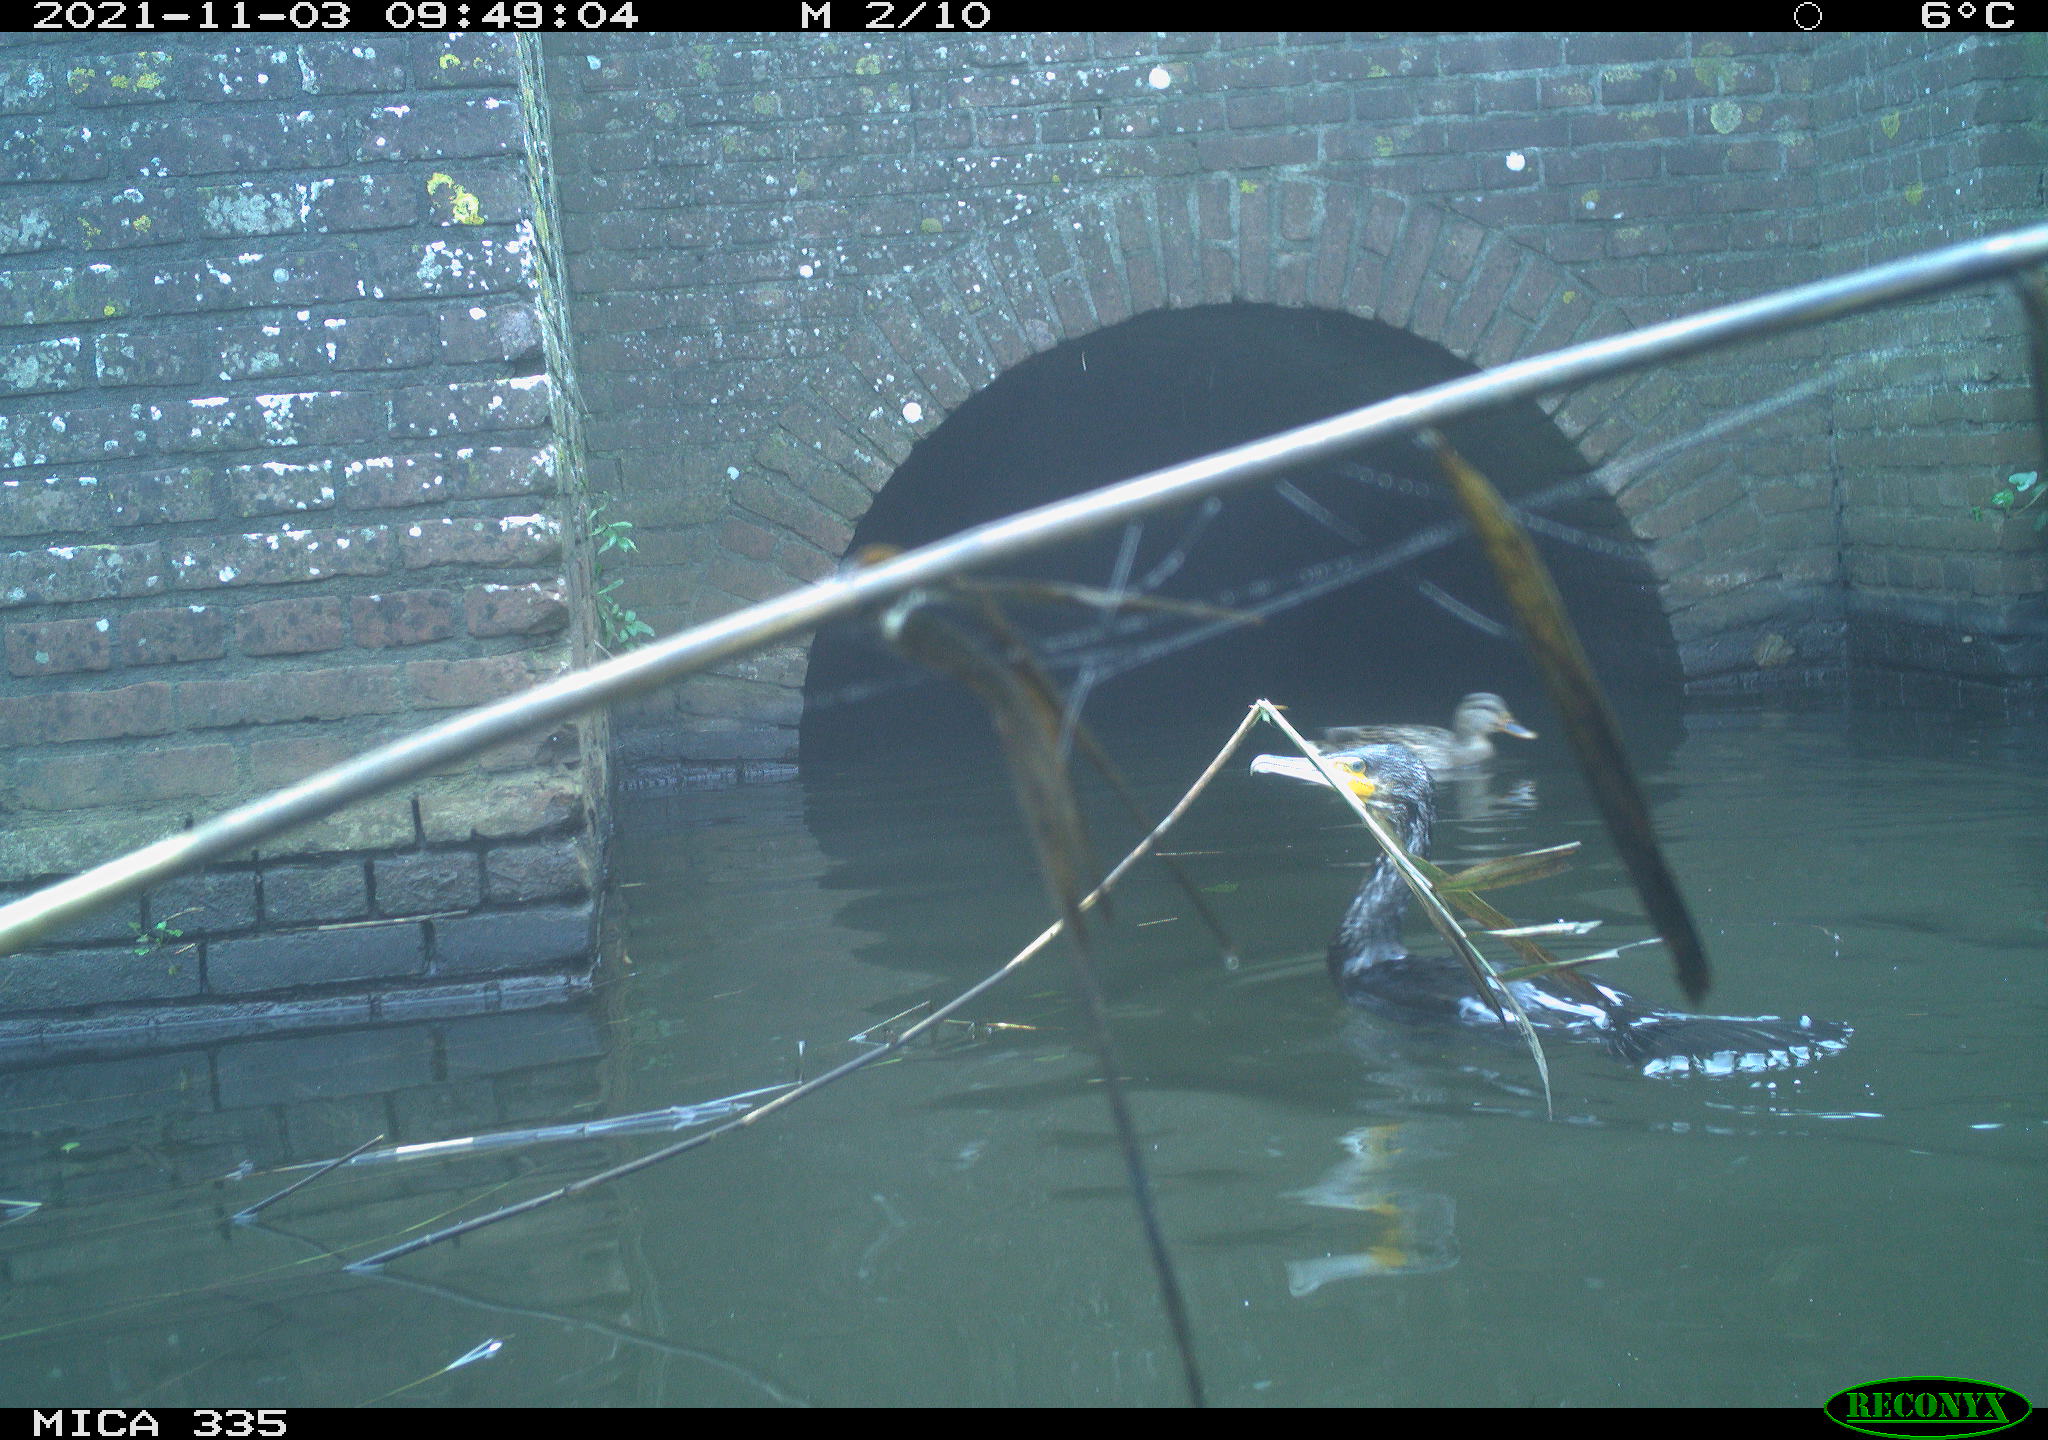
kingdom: Animalia
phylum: Chordata
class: Aves
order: Suliformes
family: Phalacrocoracidae
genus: Phalacrocorax
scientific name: Phalacrocorax carbo
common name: Great cormorant
